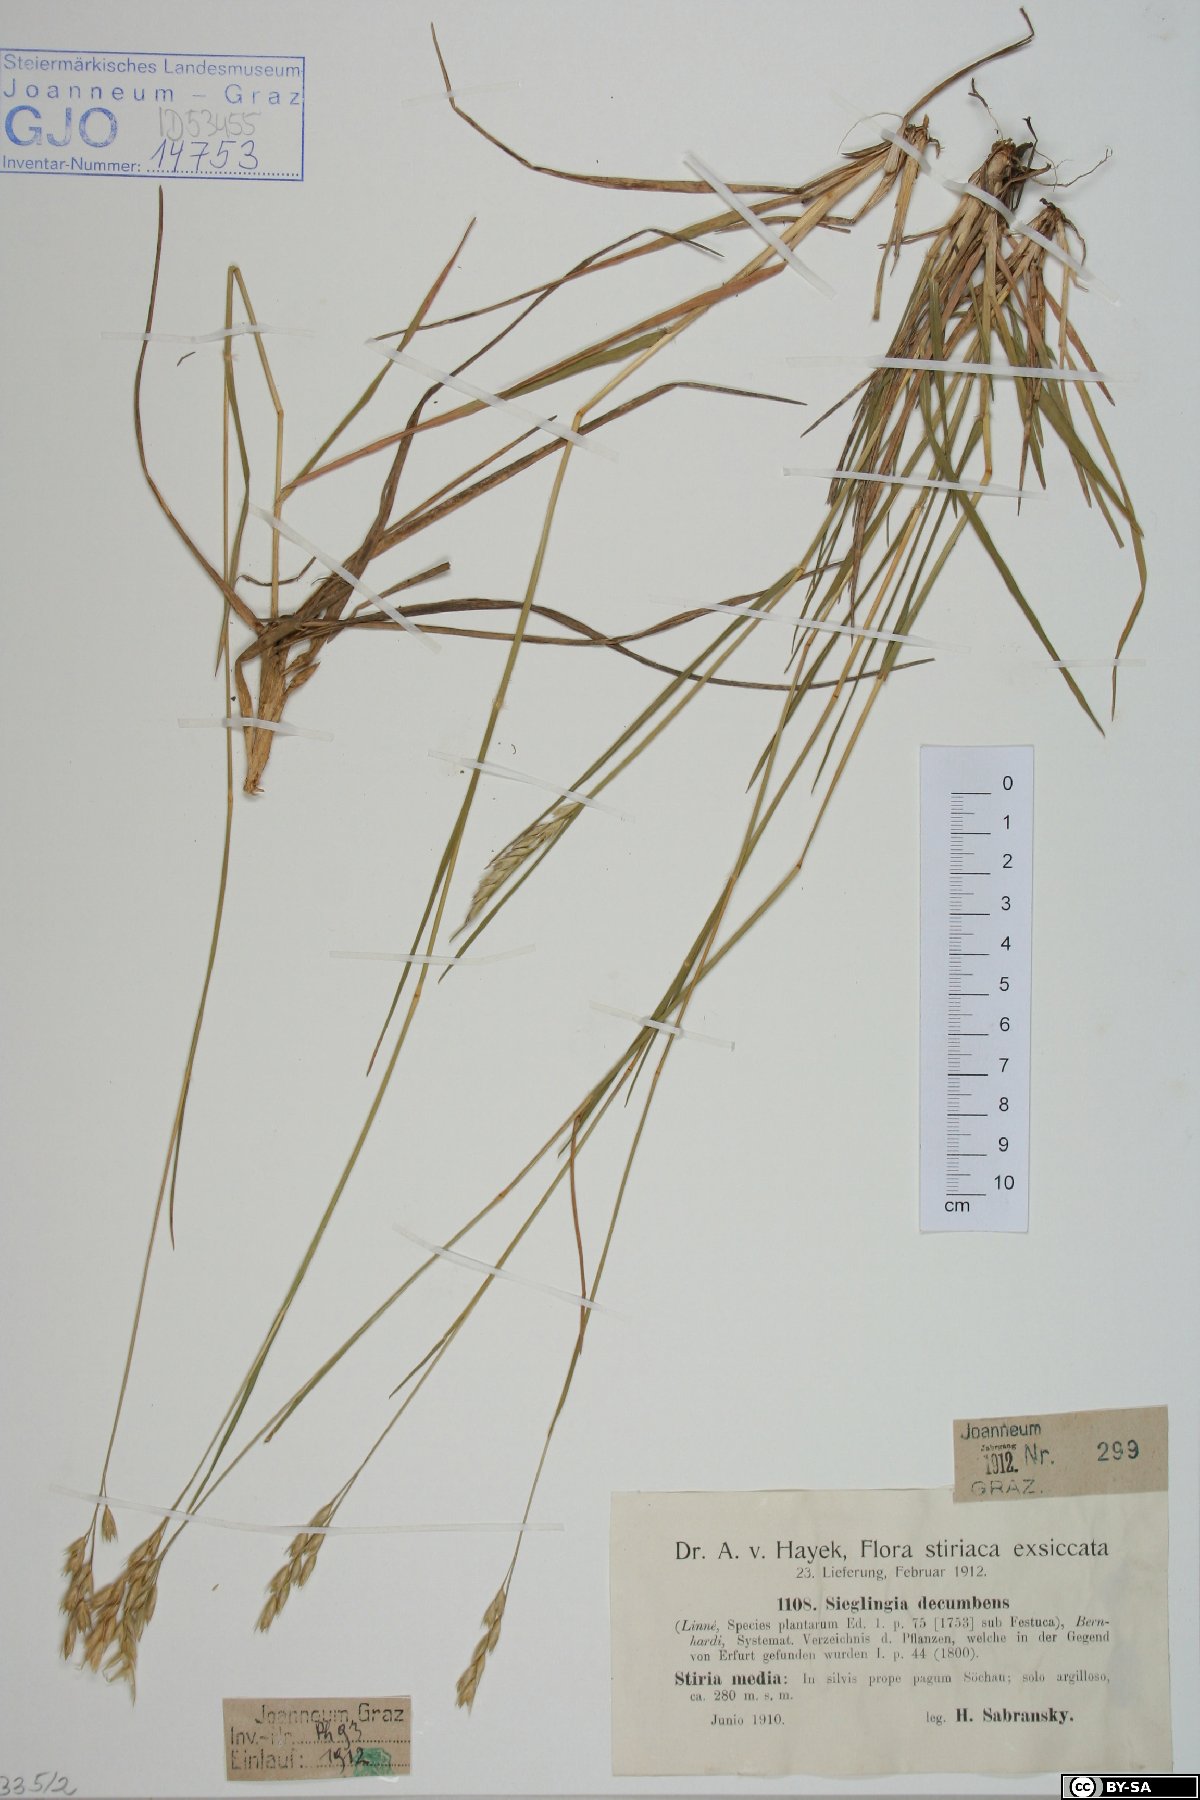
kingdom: Plantae
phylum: Tracheophyta
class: Liliopsida
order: Poales
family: Poaceae
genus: Danthonia
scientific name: Danthonia decumbens
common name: Common heathgrass
